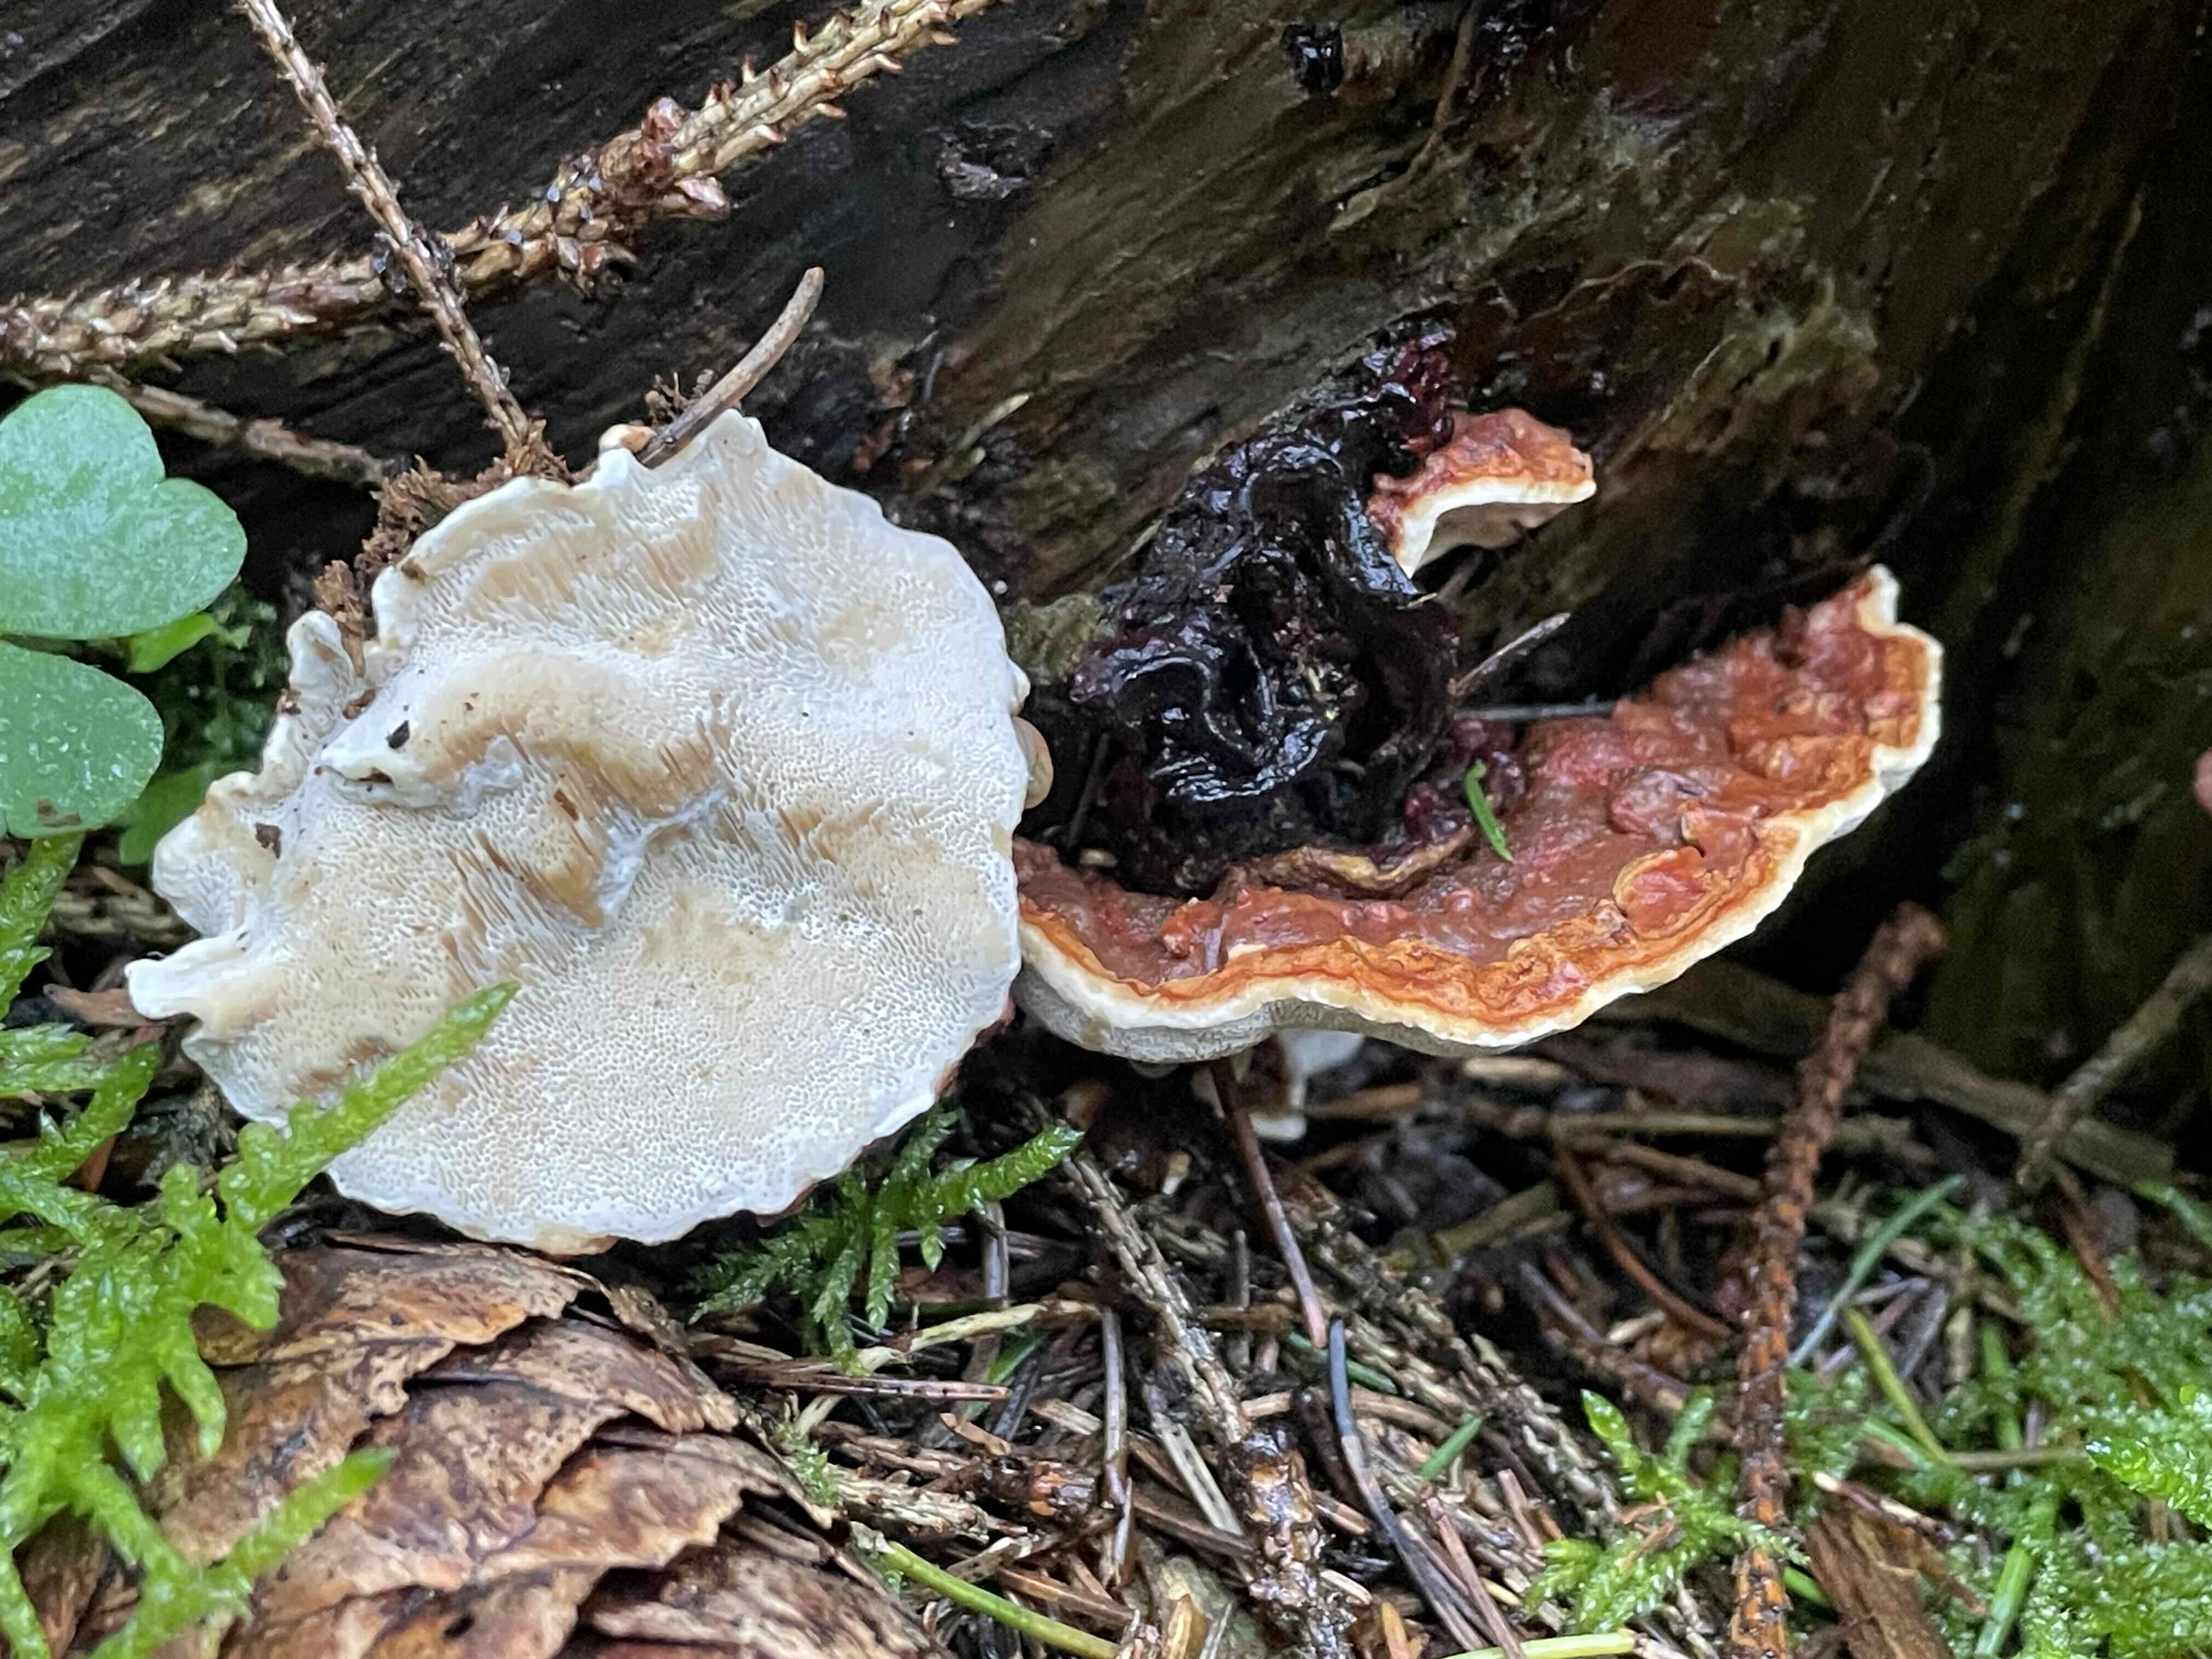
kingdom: Fungi
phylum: Basidiomycota
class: Agaricomycetes
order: Russulales
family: Bondarzewiaceae
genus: Heterobasidion
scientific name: Heterobasidion
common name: rodfordærver
